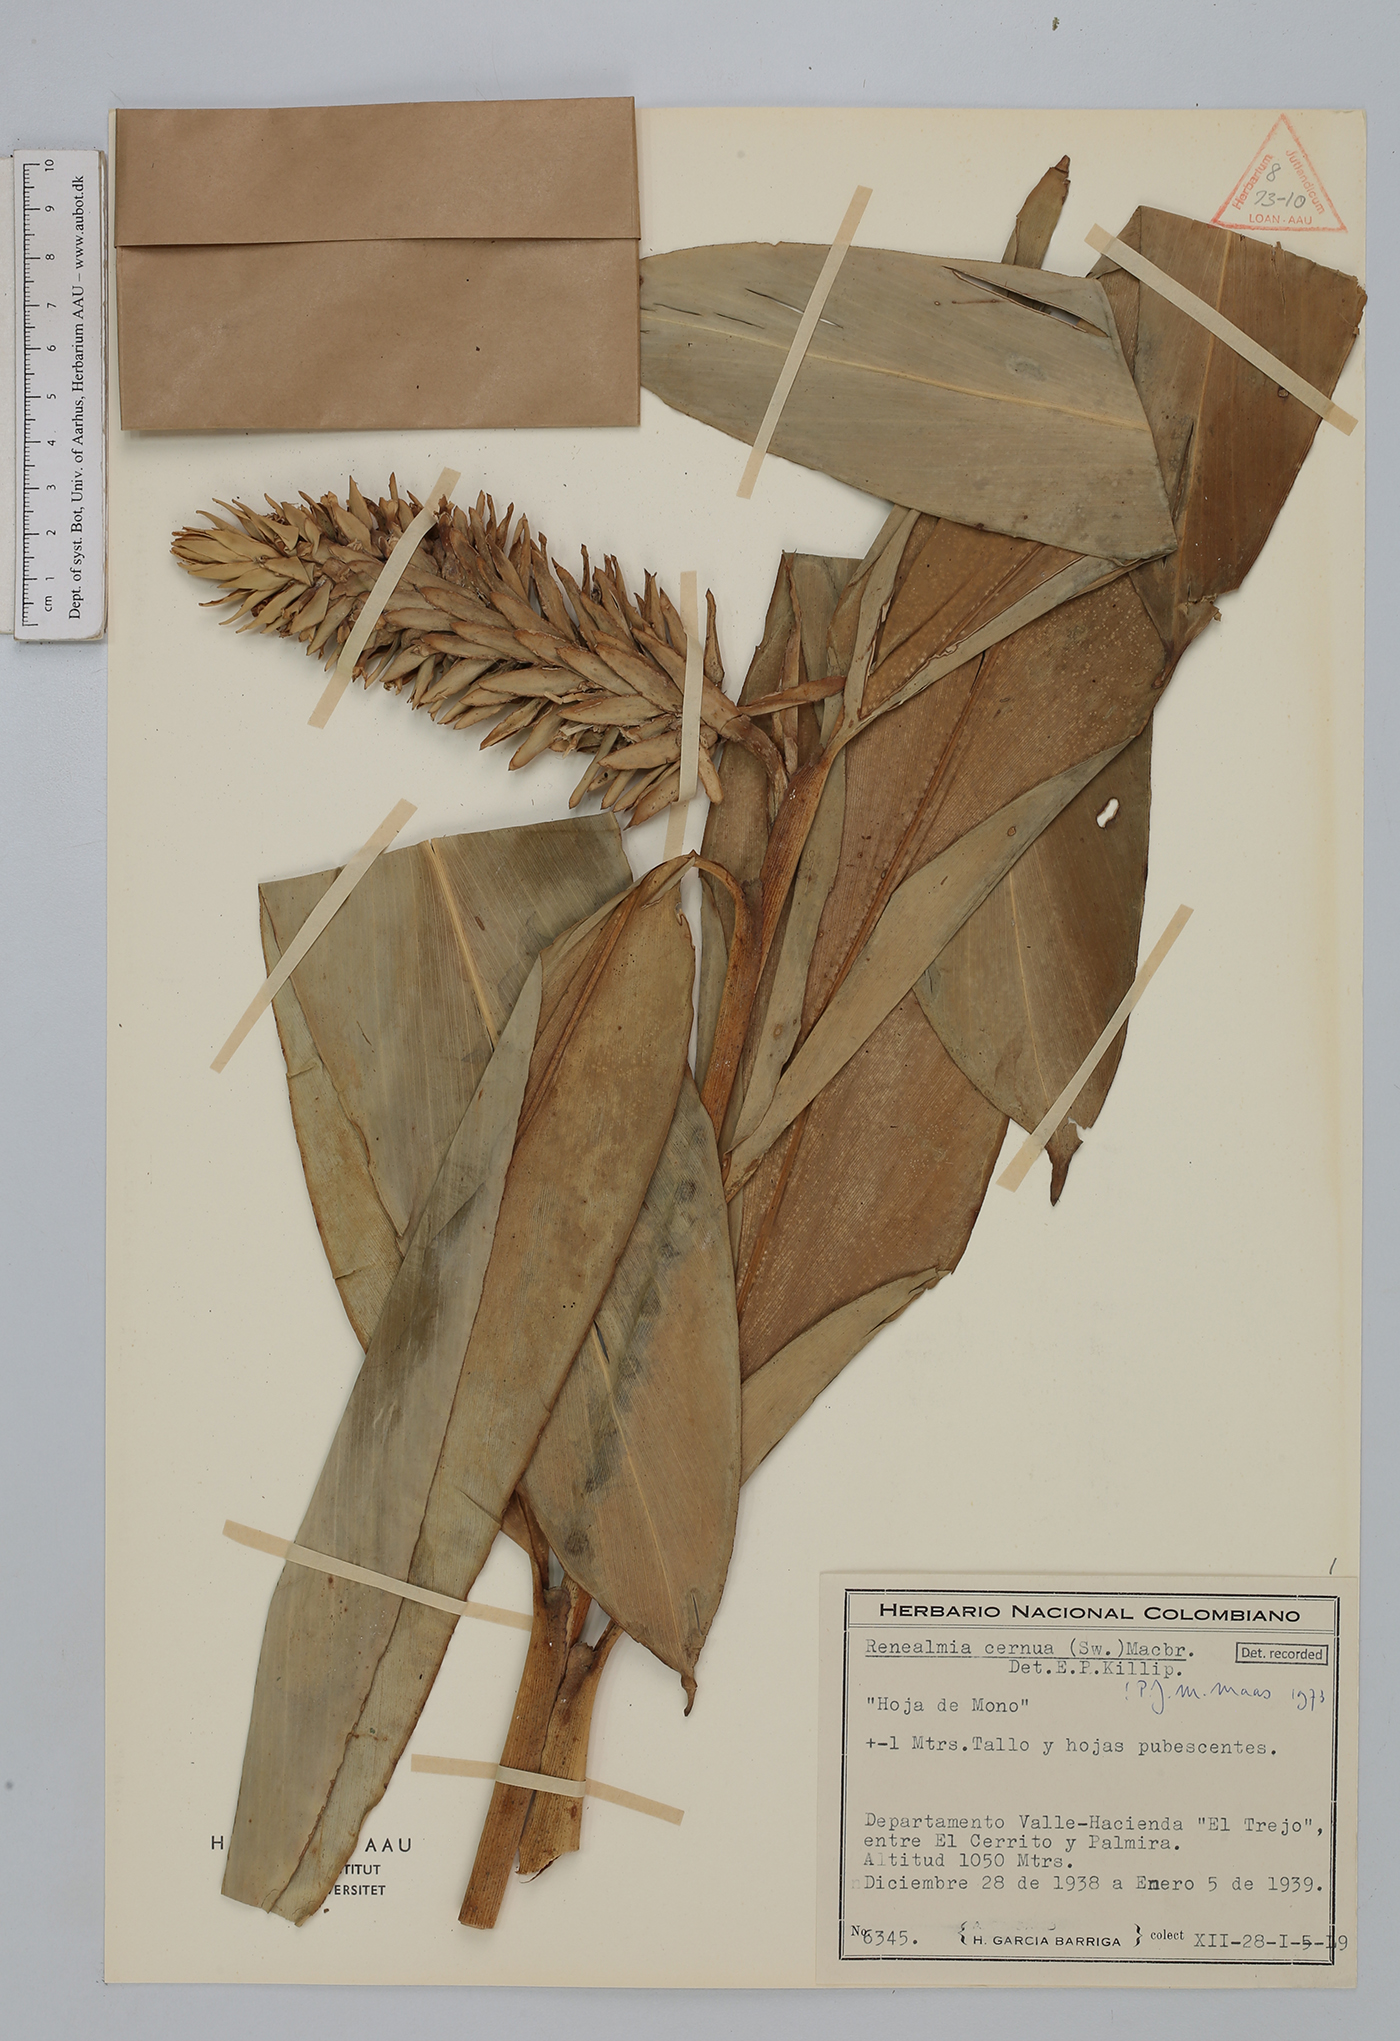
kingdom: Plantae
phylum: Tracheophyta
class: Liliopsida
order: Zingiberales
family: Zingiberaceae
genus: Renealmia
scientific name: Renealmia cernua
